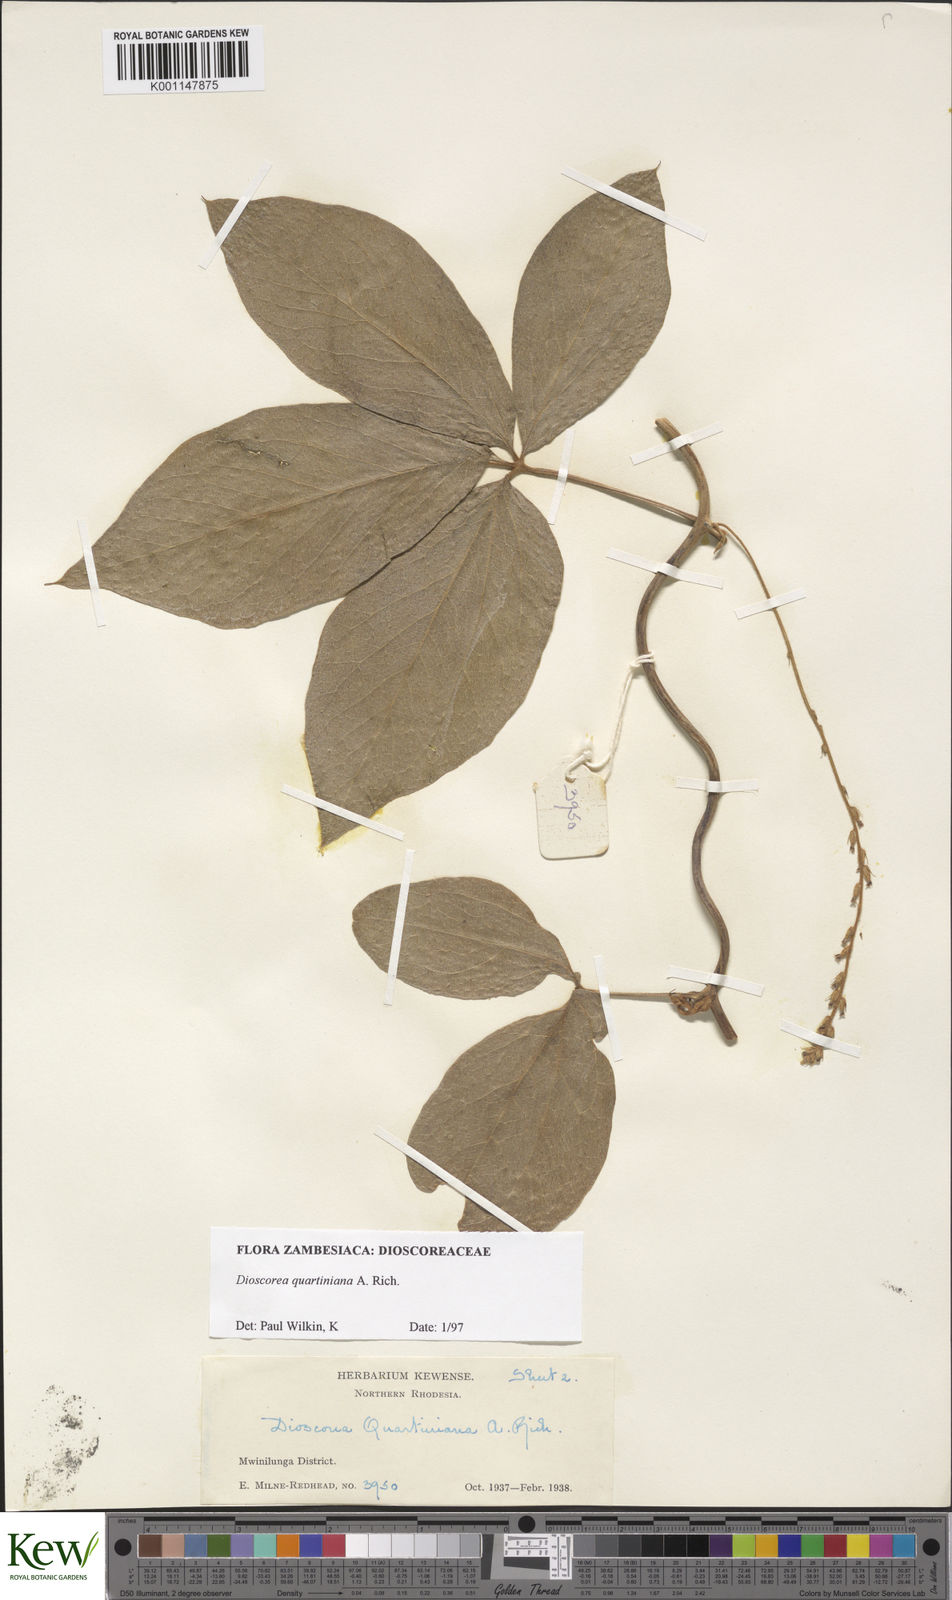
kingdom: Plantae
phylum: Tracheophyta
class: Liliopsida
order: Dioscoreales
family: Dioscoreaceae
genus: Dioscorea
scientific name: Dioscorea quartiniana
